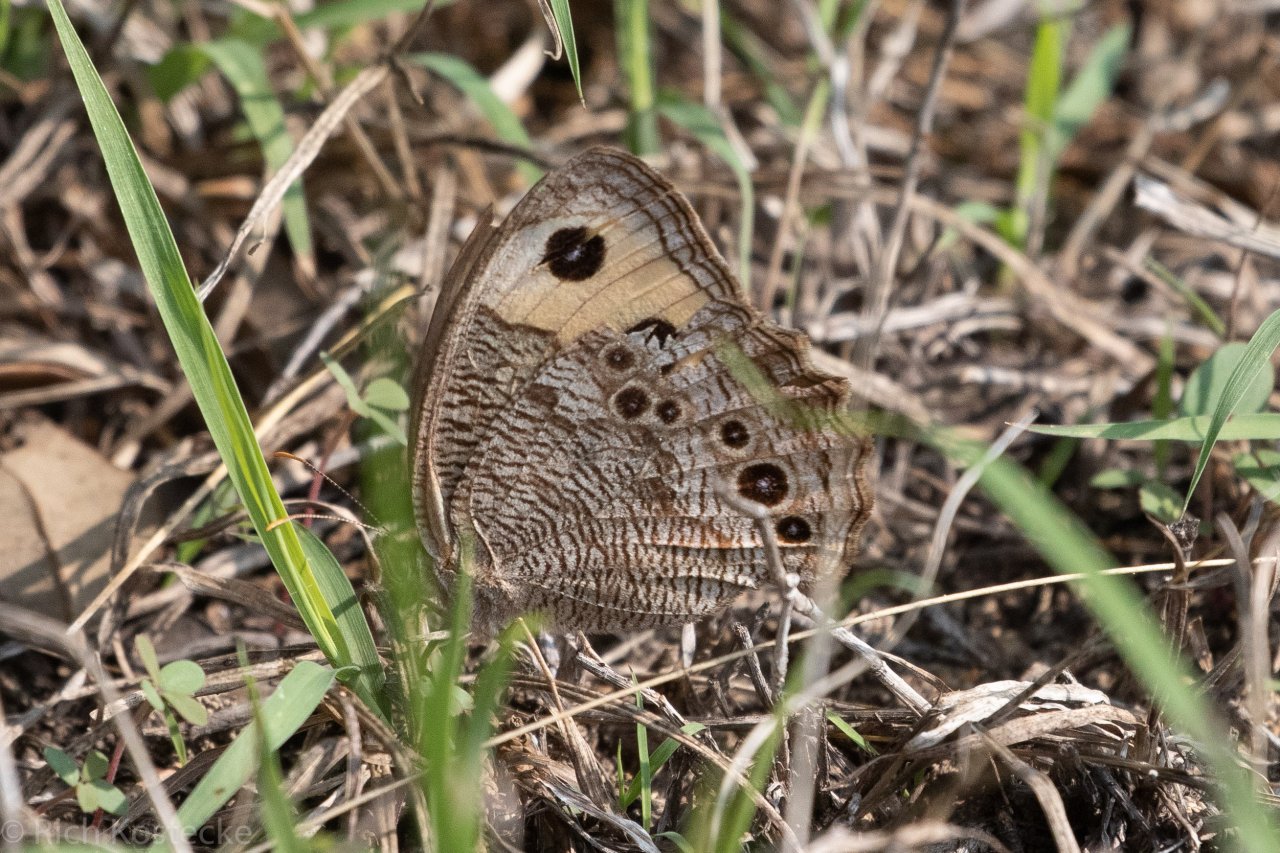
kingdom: Animalia
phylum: Arthropoda
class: Insecta
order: Lepidoptera
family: Nymphalidae
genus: Cercyonis
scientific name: Cercyonis pegala
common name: Common Wood-Nymph
